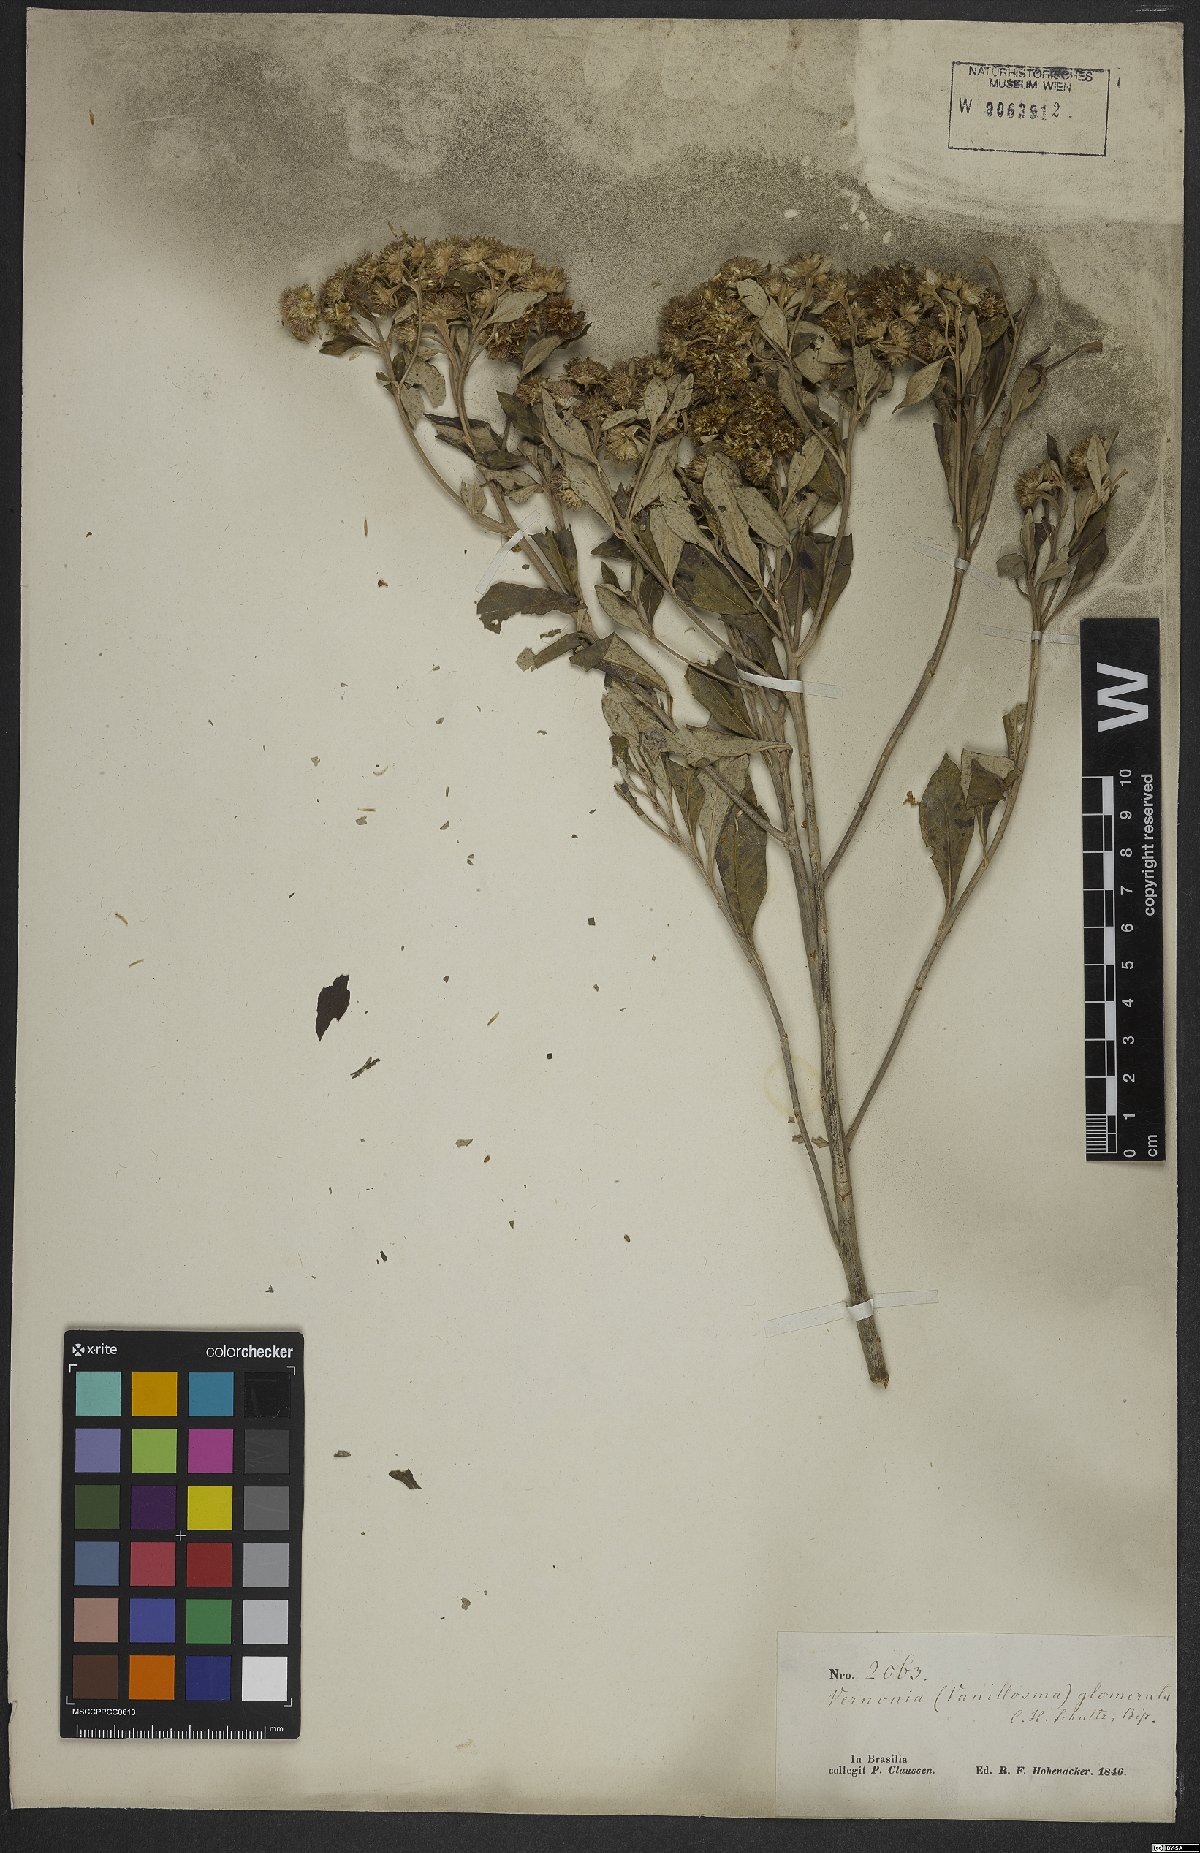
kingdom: Plantae
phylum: Tracheophyta
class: Magnoliopsida
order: Asterales
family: Asteraceae
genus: Eremanthus
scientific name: Eremanthus erythropappus
